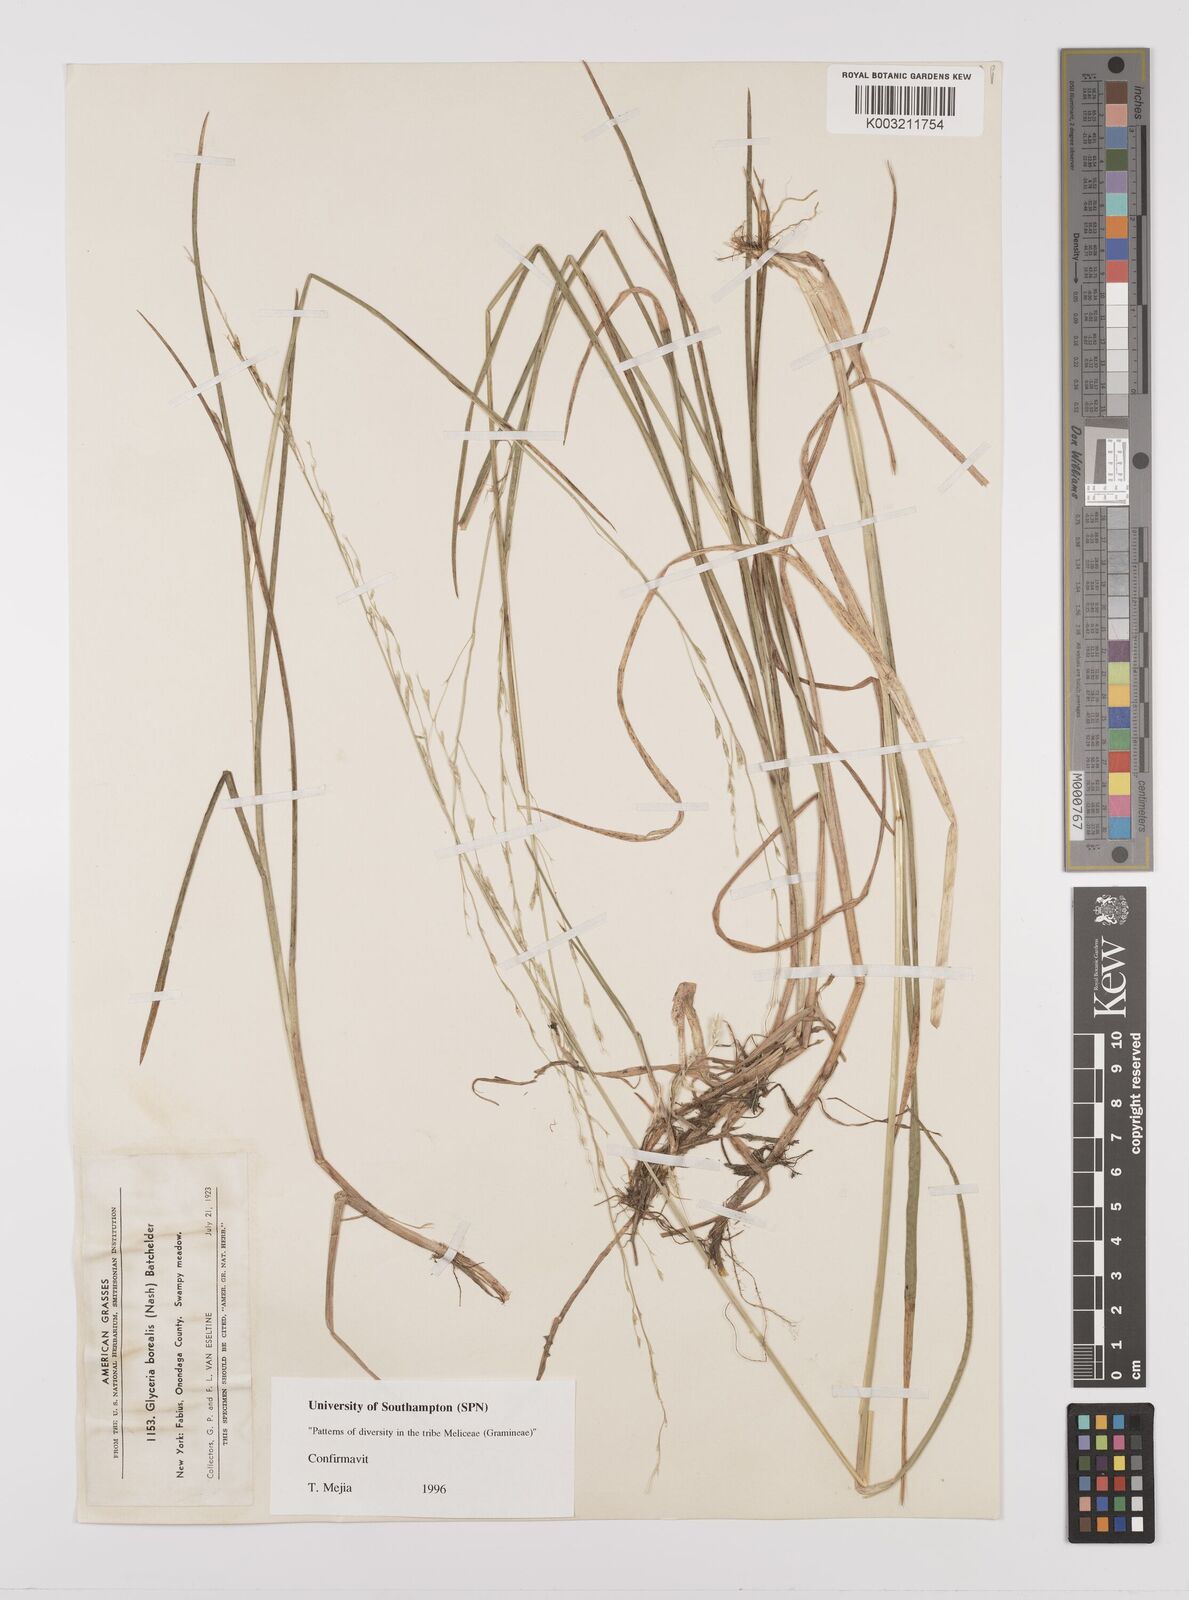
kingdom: Plantae
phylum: Tracheophyta
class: Liliopsida
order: Poales
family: Poaceae
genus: Glyceria
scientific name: Glyceria borealis
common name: Boreal glyceria
